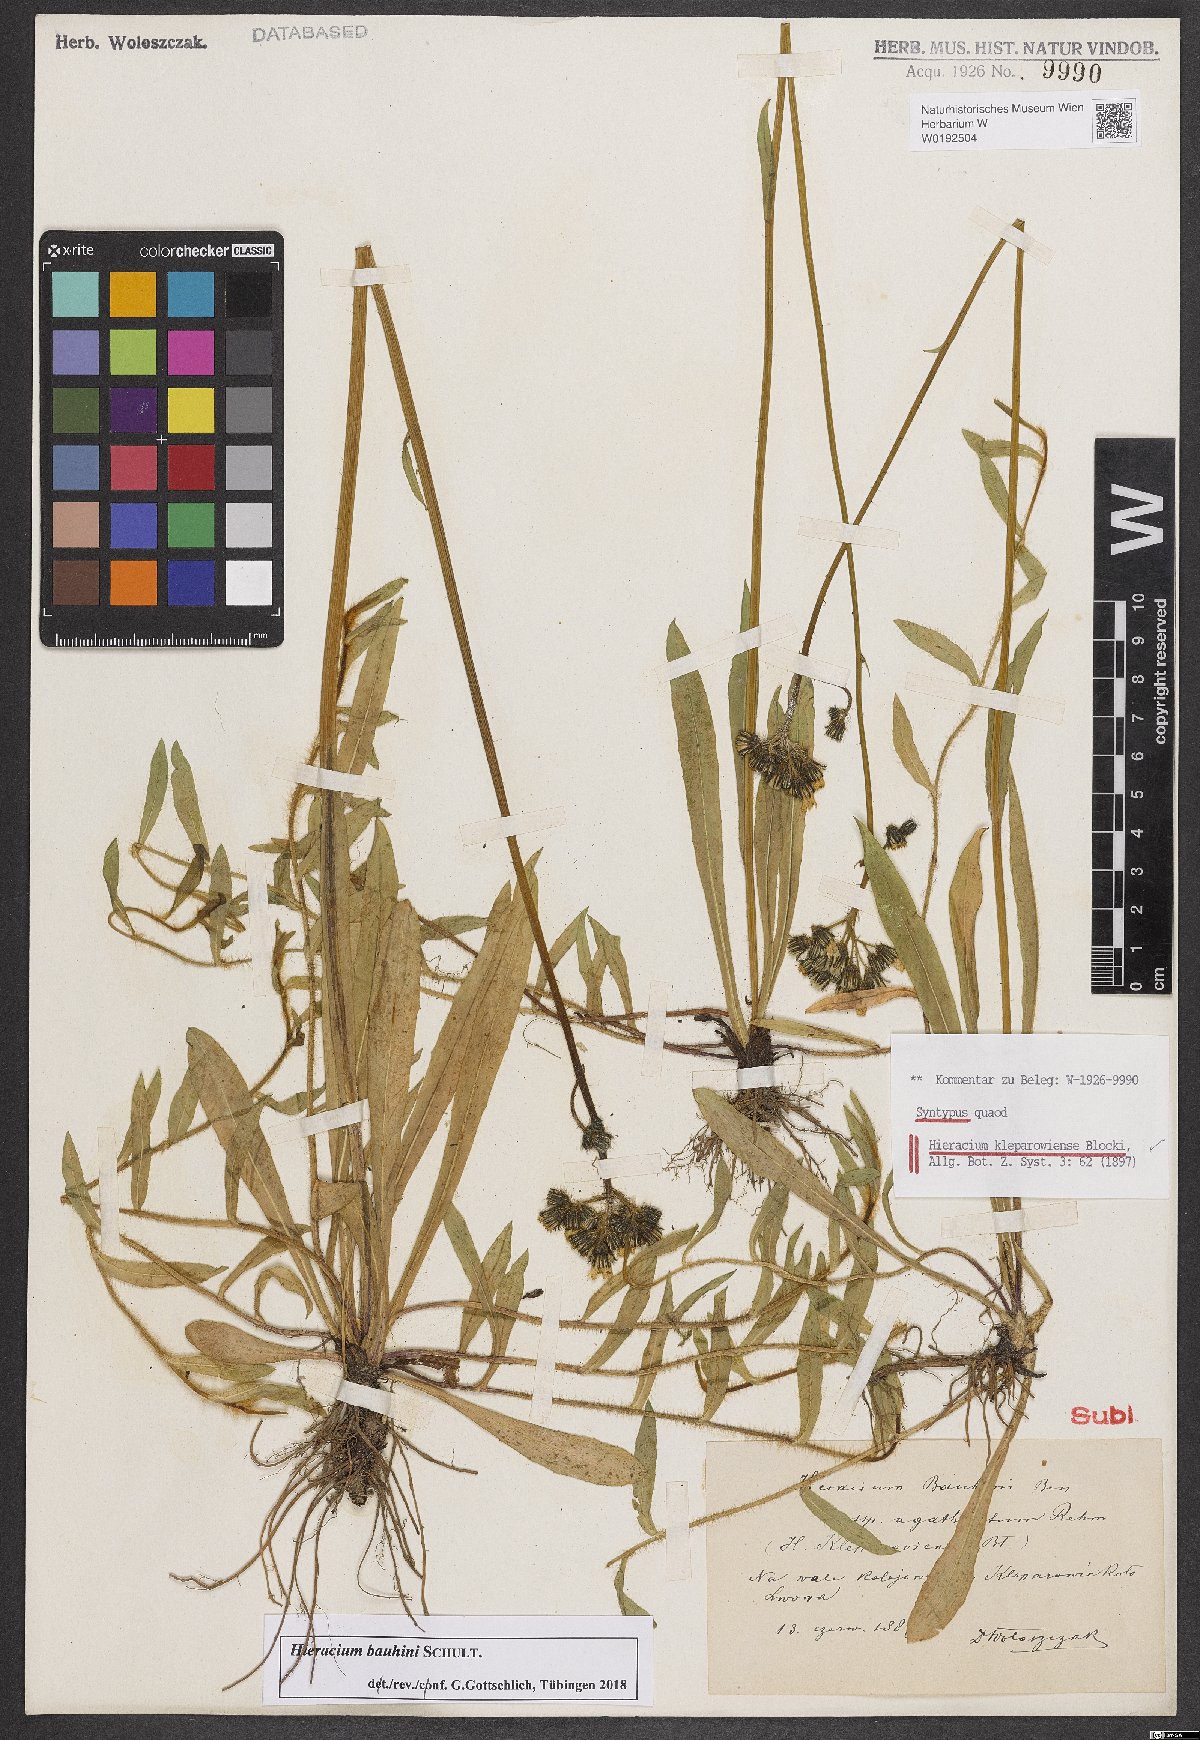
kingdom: Plantae
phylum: Tracheophyta
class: Magnoliopsida
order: Asterales
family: Asteraceae
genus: Hieracium
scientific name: Hieracium kleparowiense
